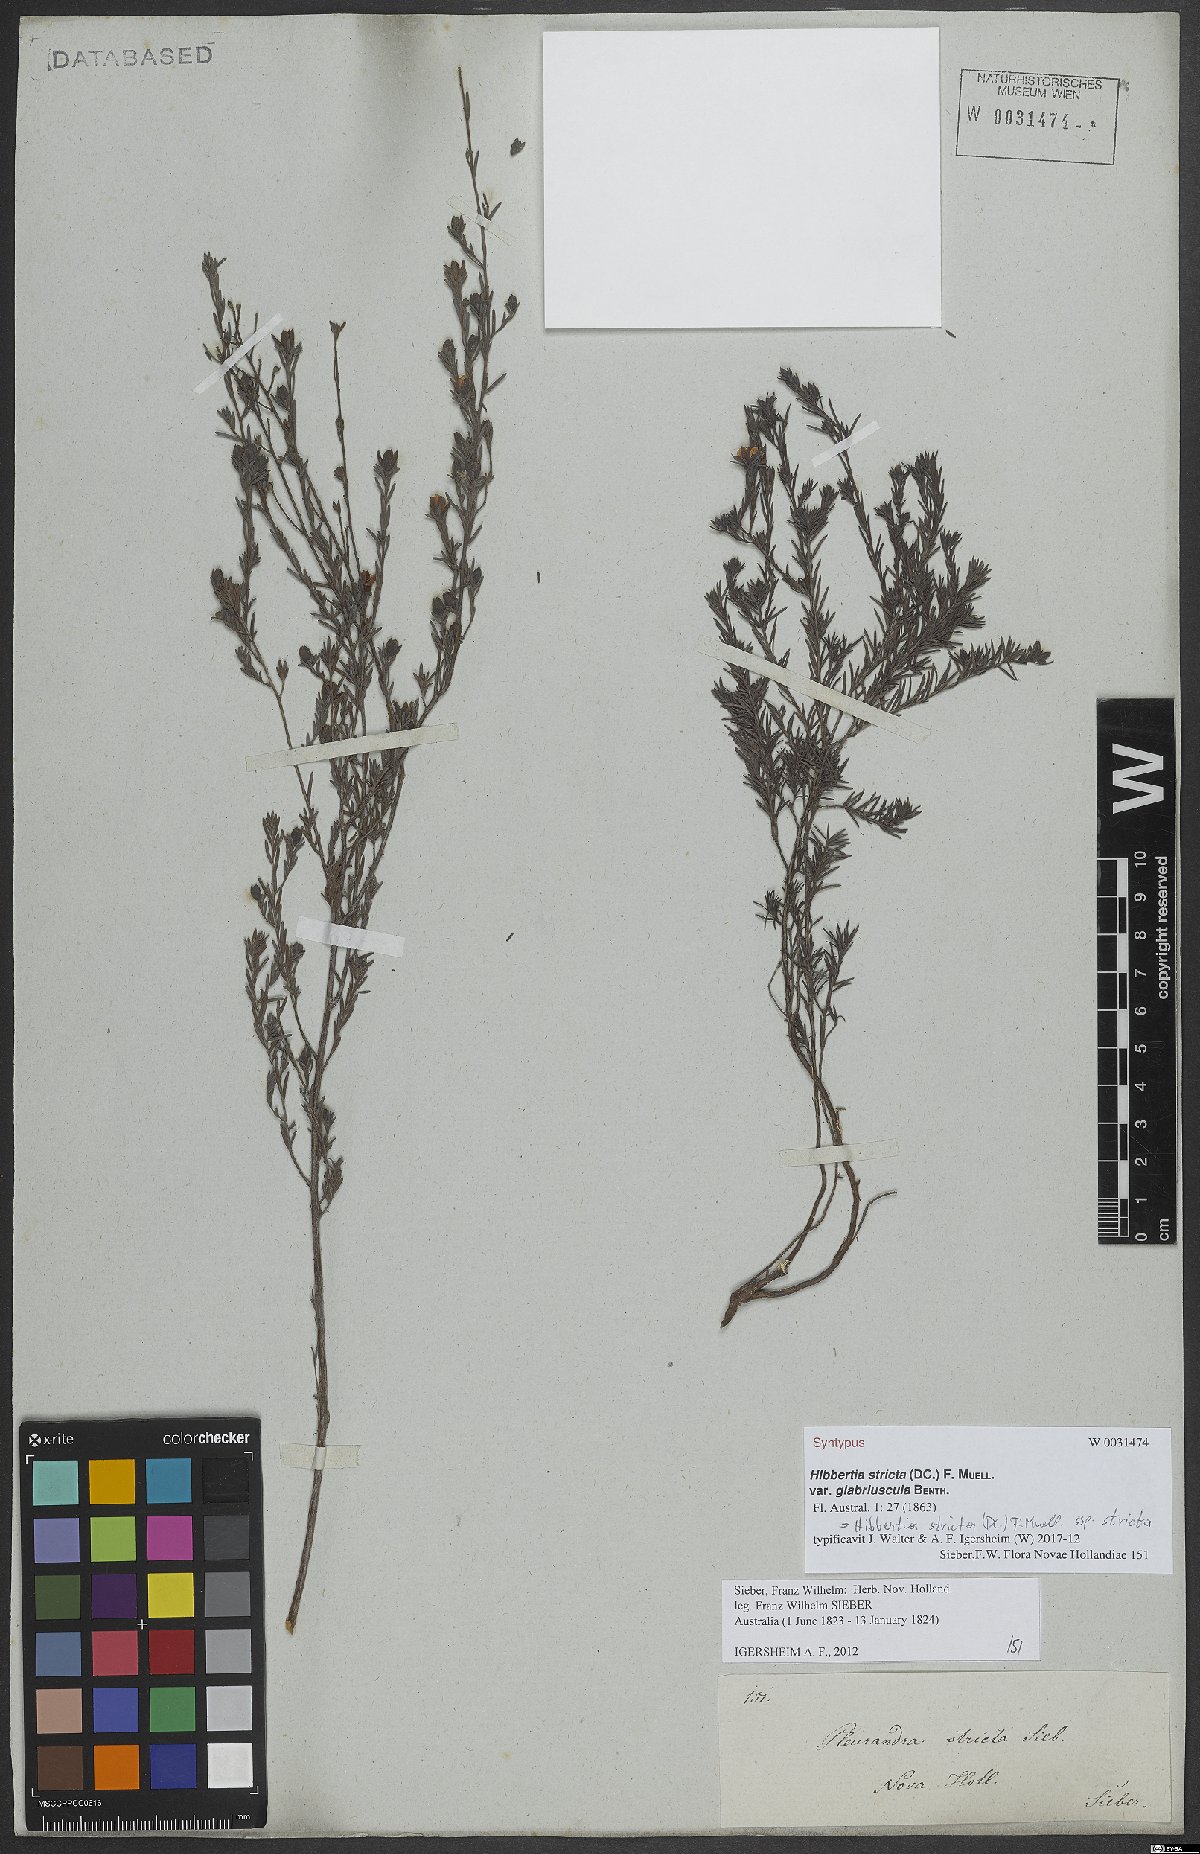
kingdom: Plantae
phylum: Tracheophyta
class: Magnoliopsida
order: Dilleniales
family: Dilleniaceae
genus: Hibbertia
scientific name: Hibbertia stricta
